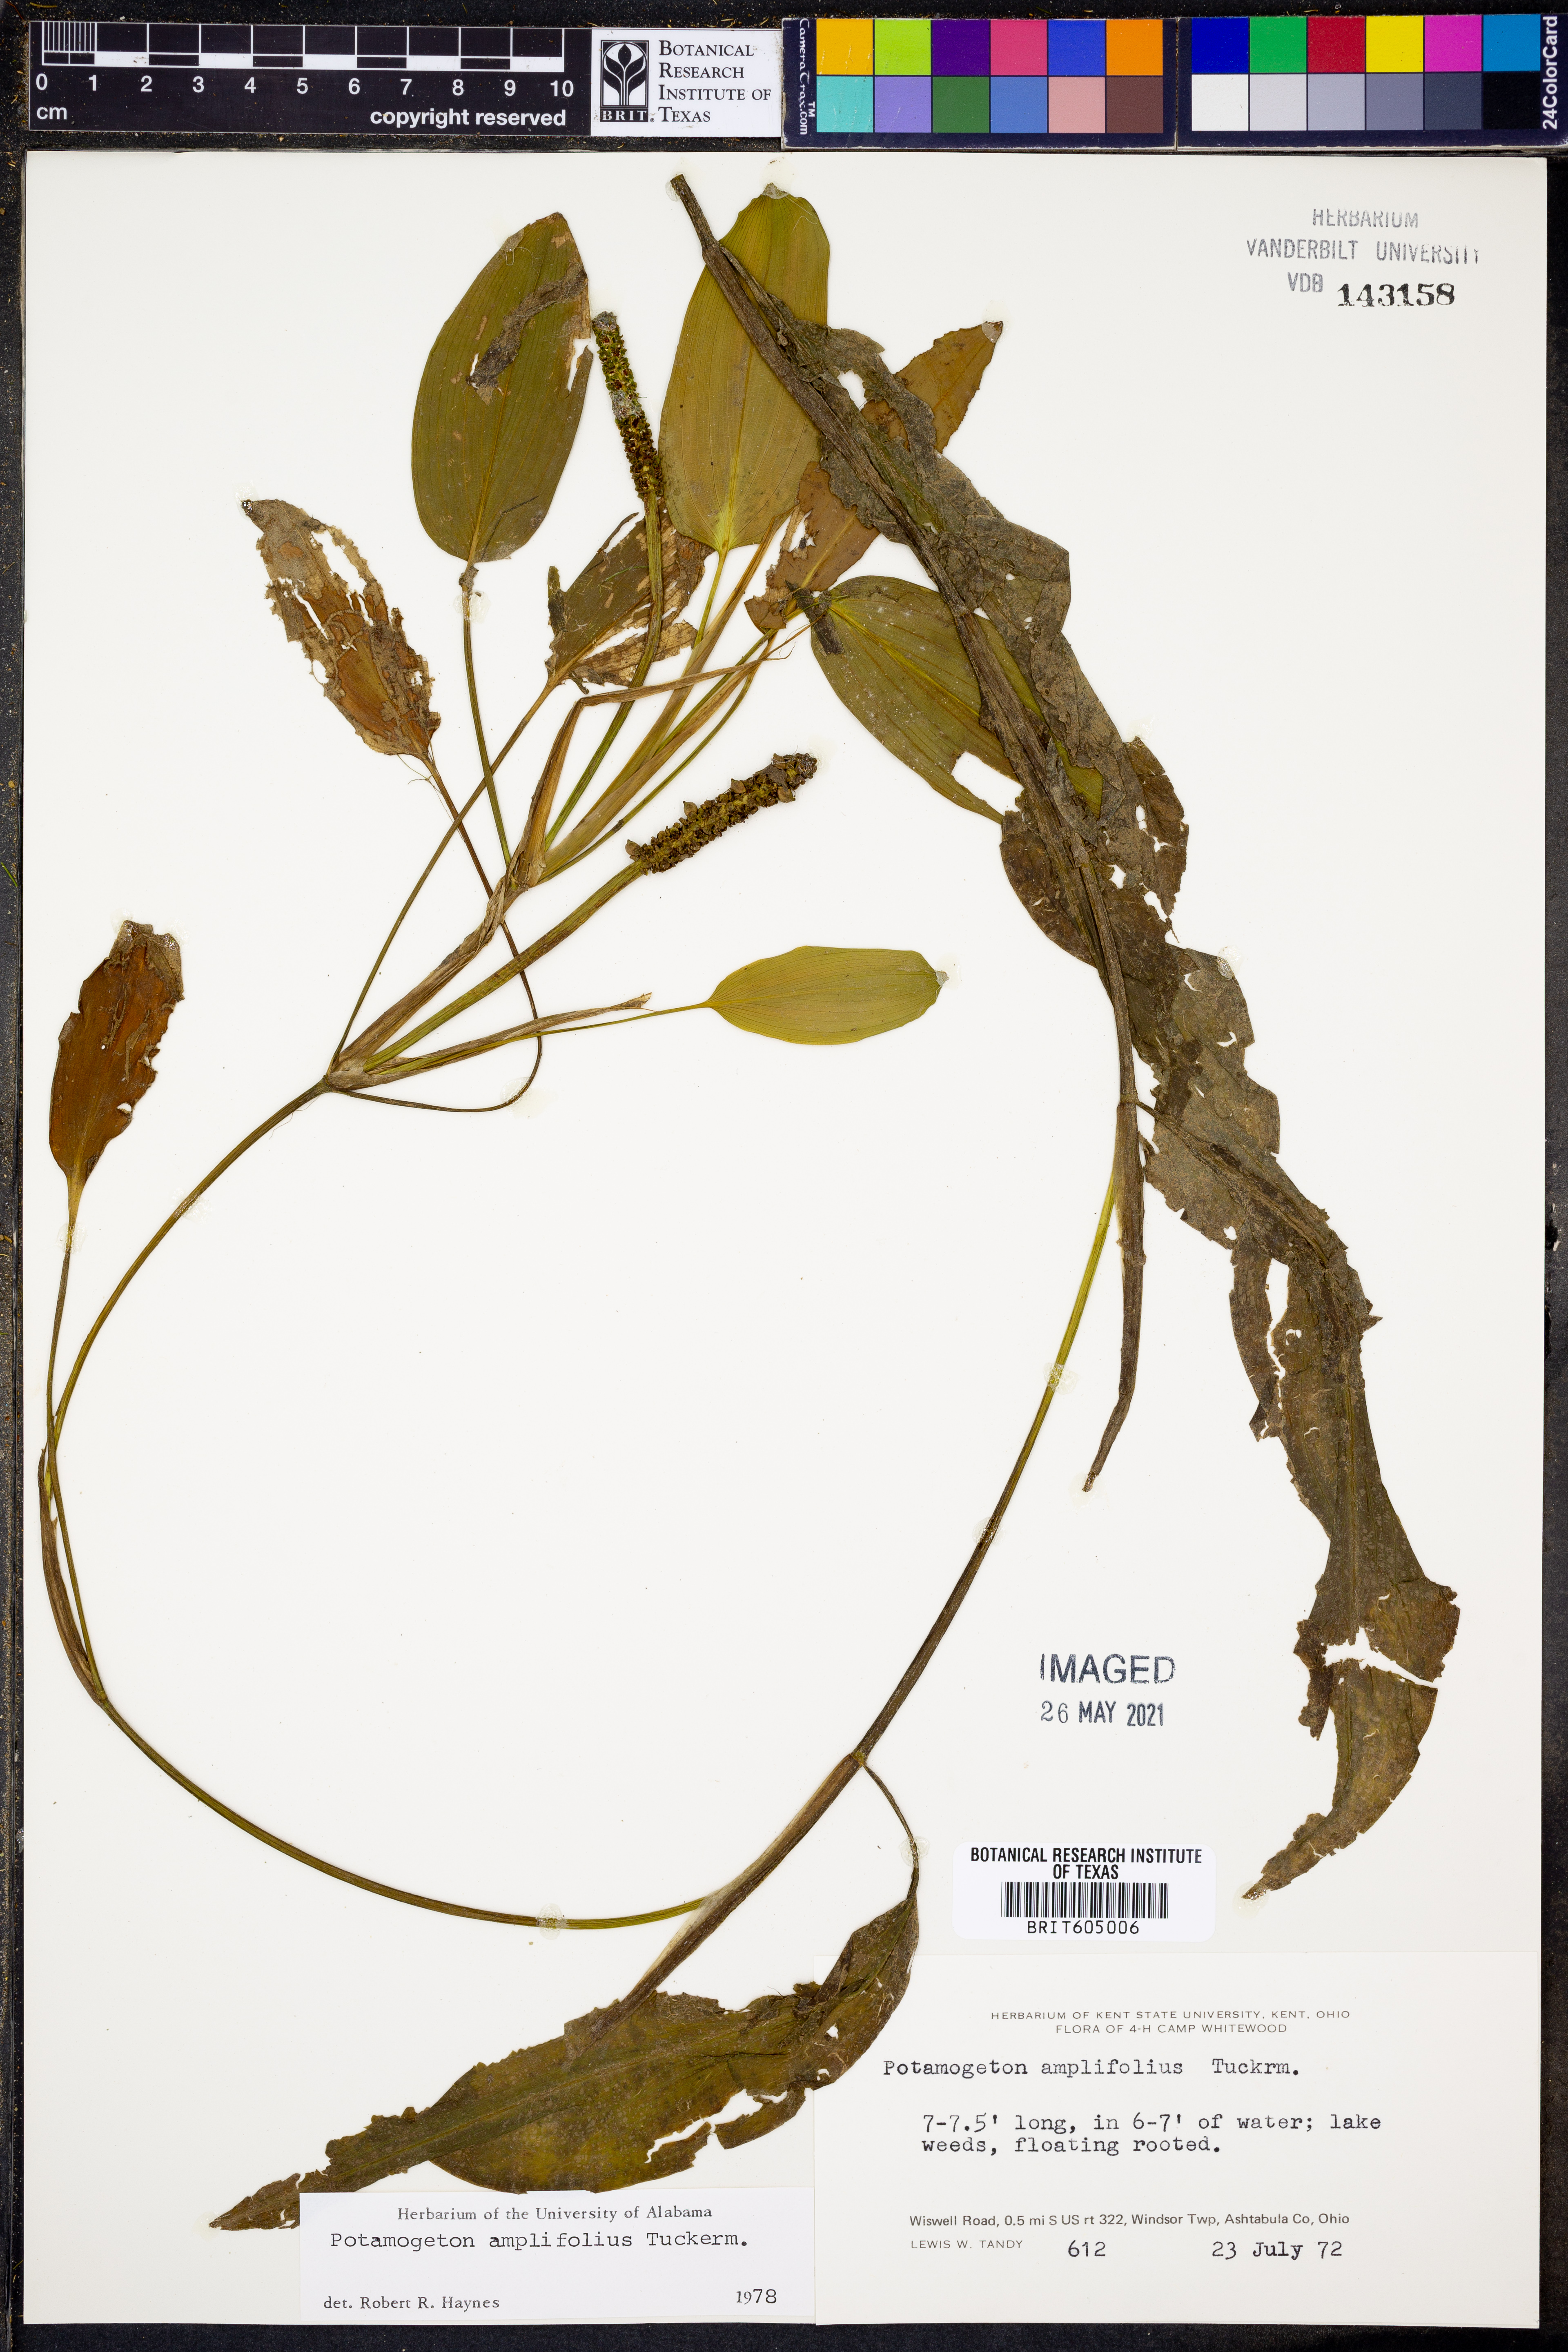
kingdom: Plantae
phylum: Tracheophyta
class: Liliopsida
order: Alismatales
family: Potamogetonaceae
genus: Potamogeton
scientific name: Potamogeton amplifolius
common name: Broad-leaved pondweed
